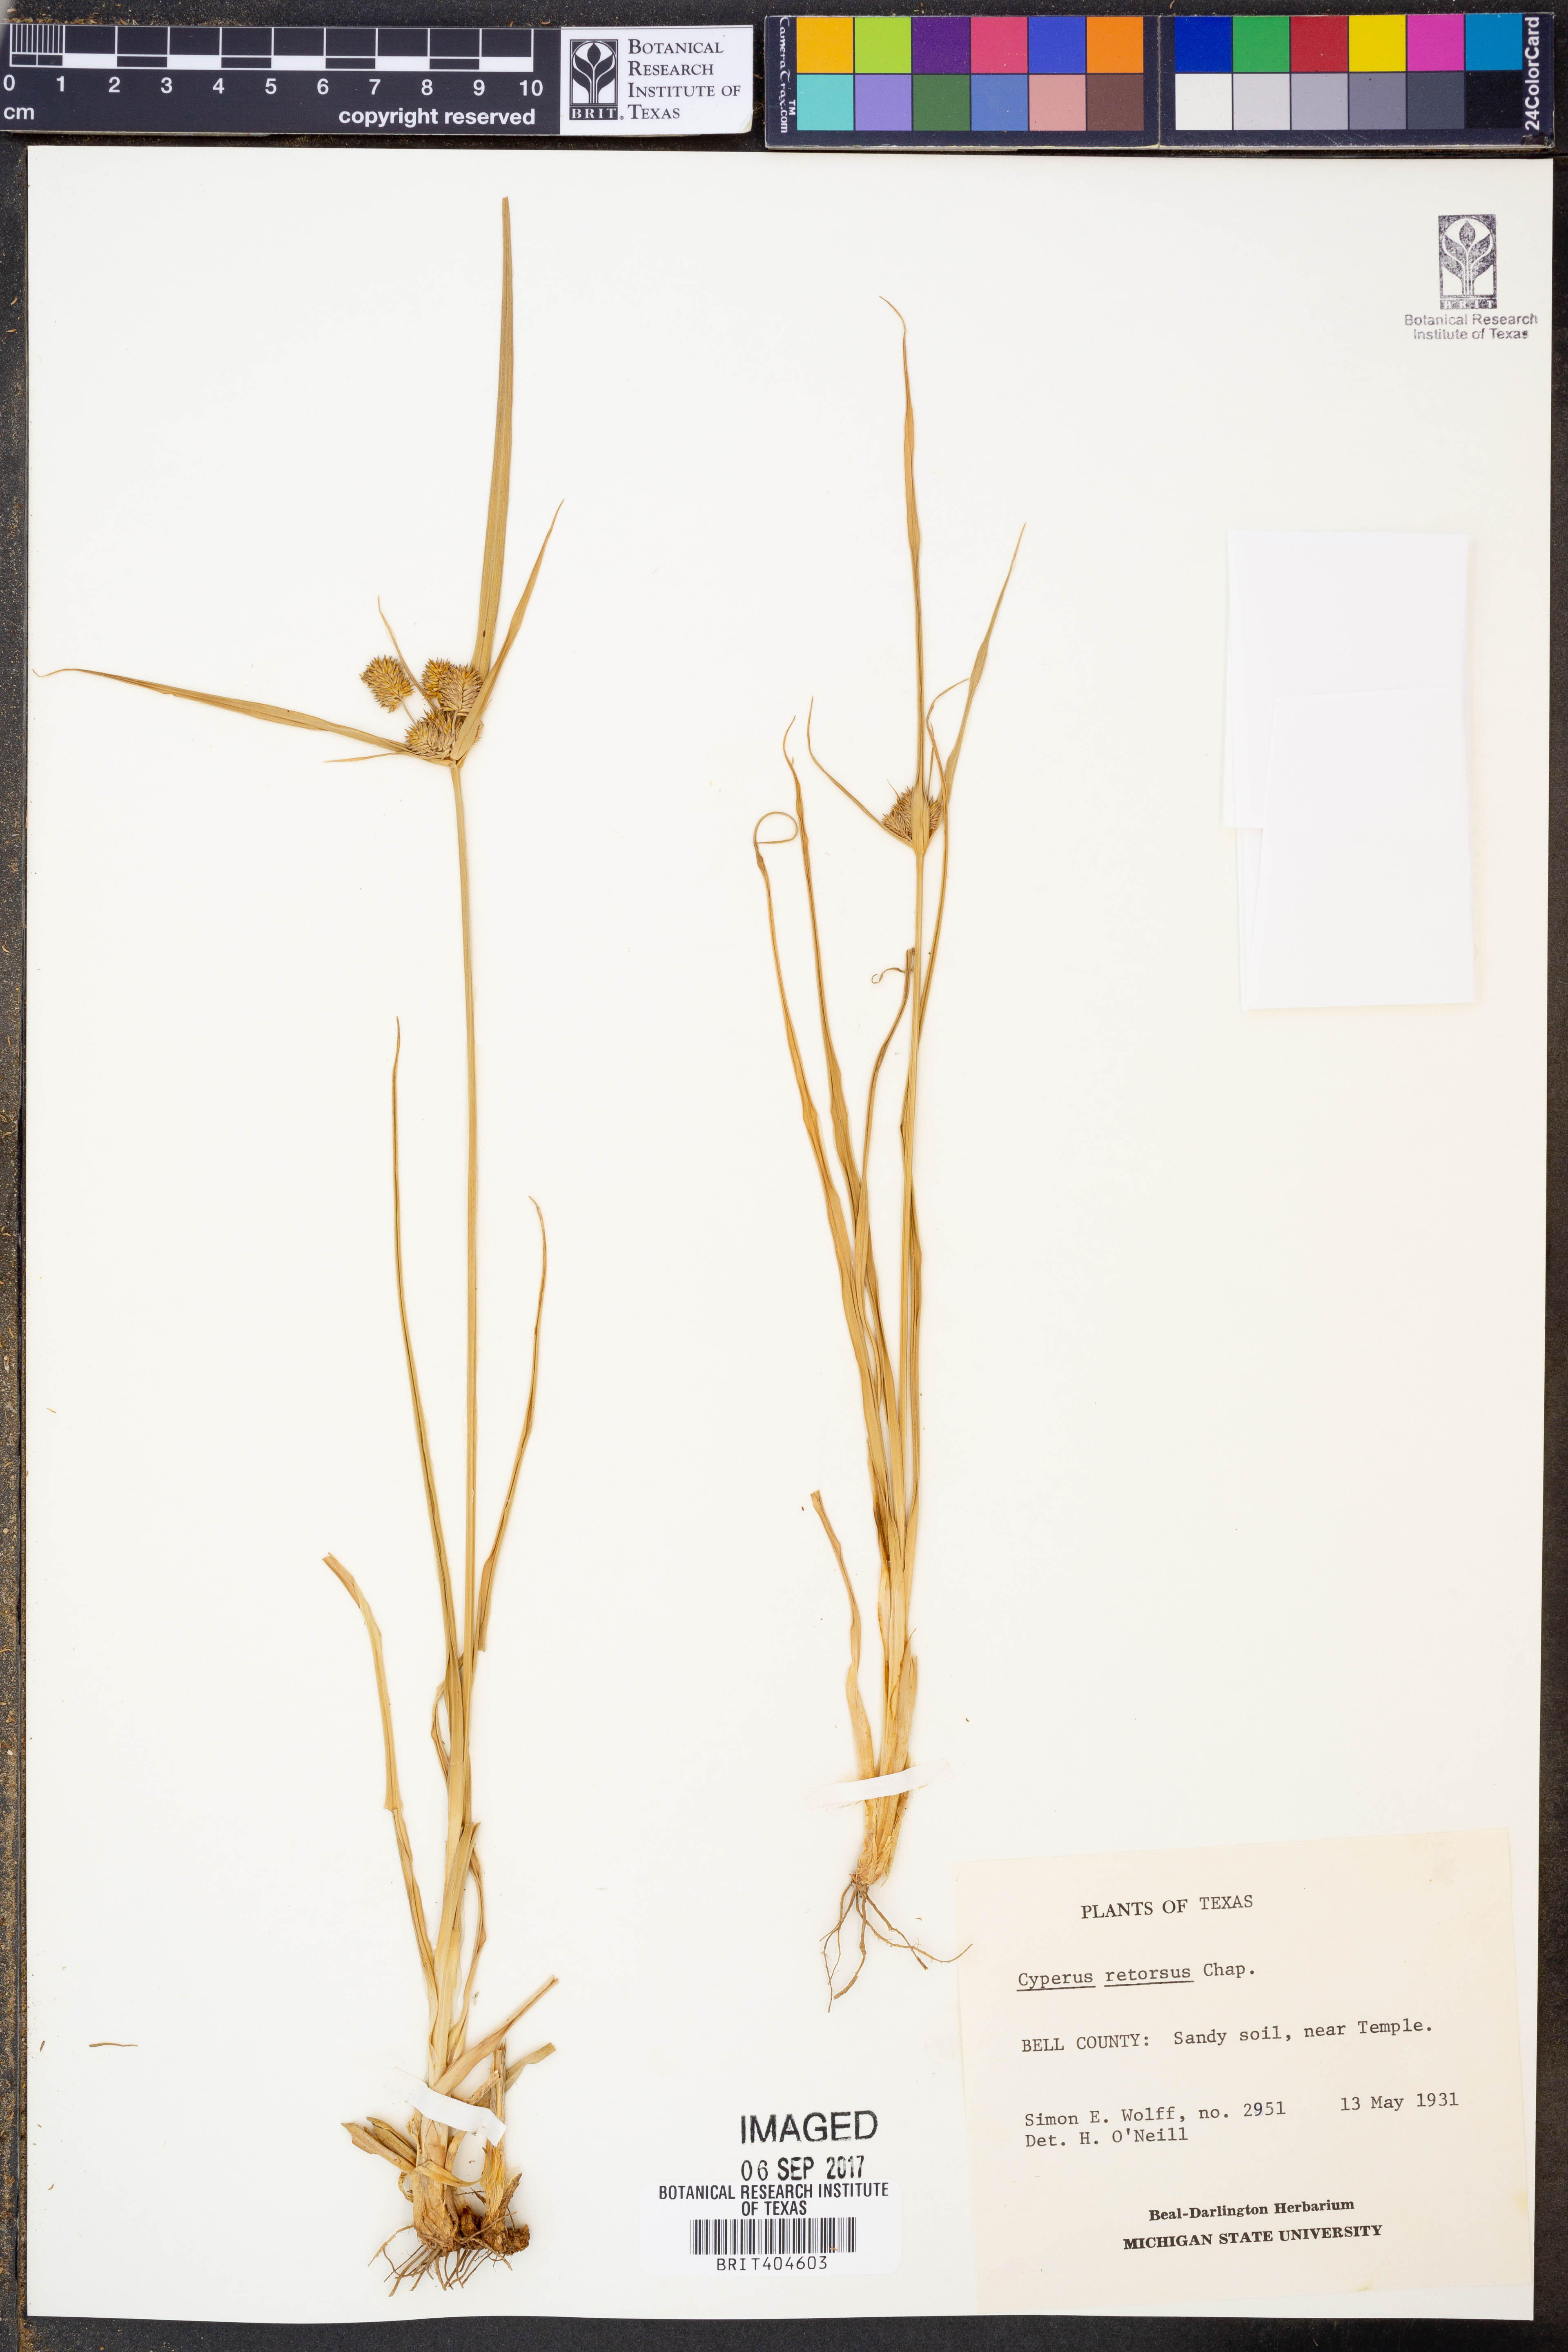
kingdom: Plantae
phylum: Tracheophyta
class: Liliopsida
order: Poales
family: Cyperaceae
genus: Cyperus
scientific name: Cyperus retrorsus
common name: Pinebarren flat sedge
